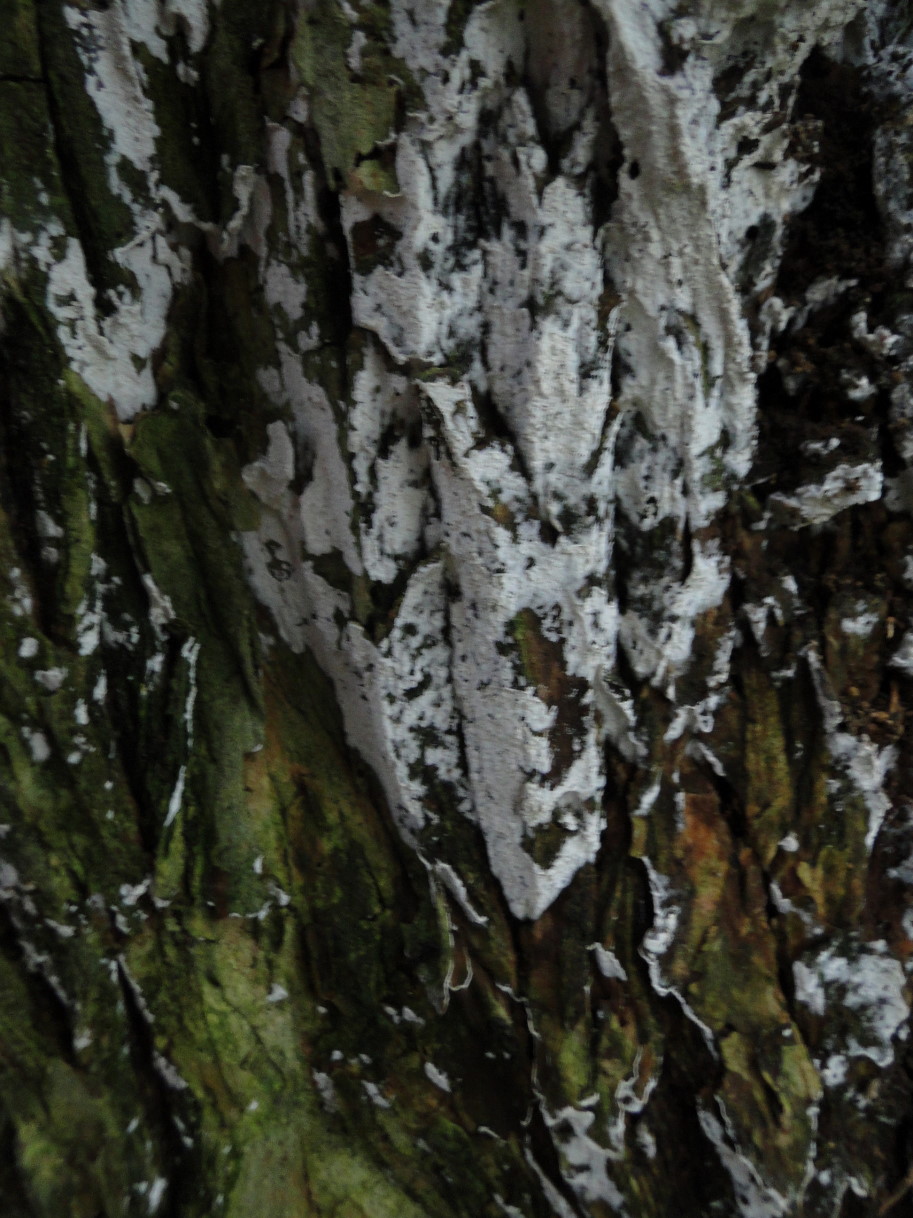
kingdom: Fungi
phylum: Basidiomycota
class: Agaricomycetes
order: Corticiales
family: Corticiaceae
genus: Lyomyces
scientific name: Lyomyces sambuci
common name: almindelig hyldehinde
